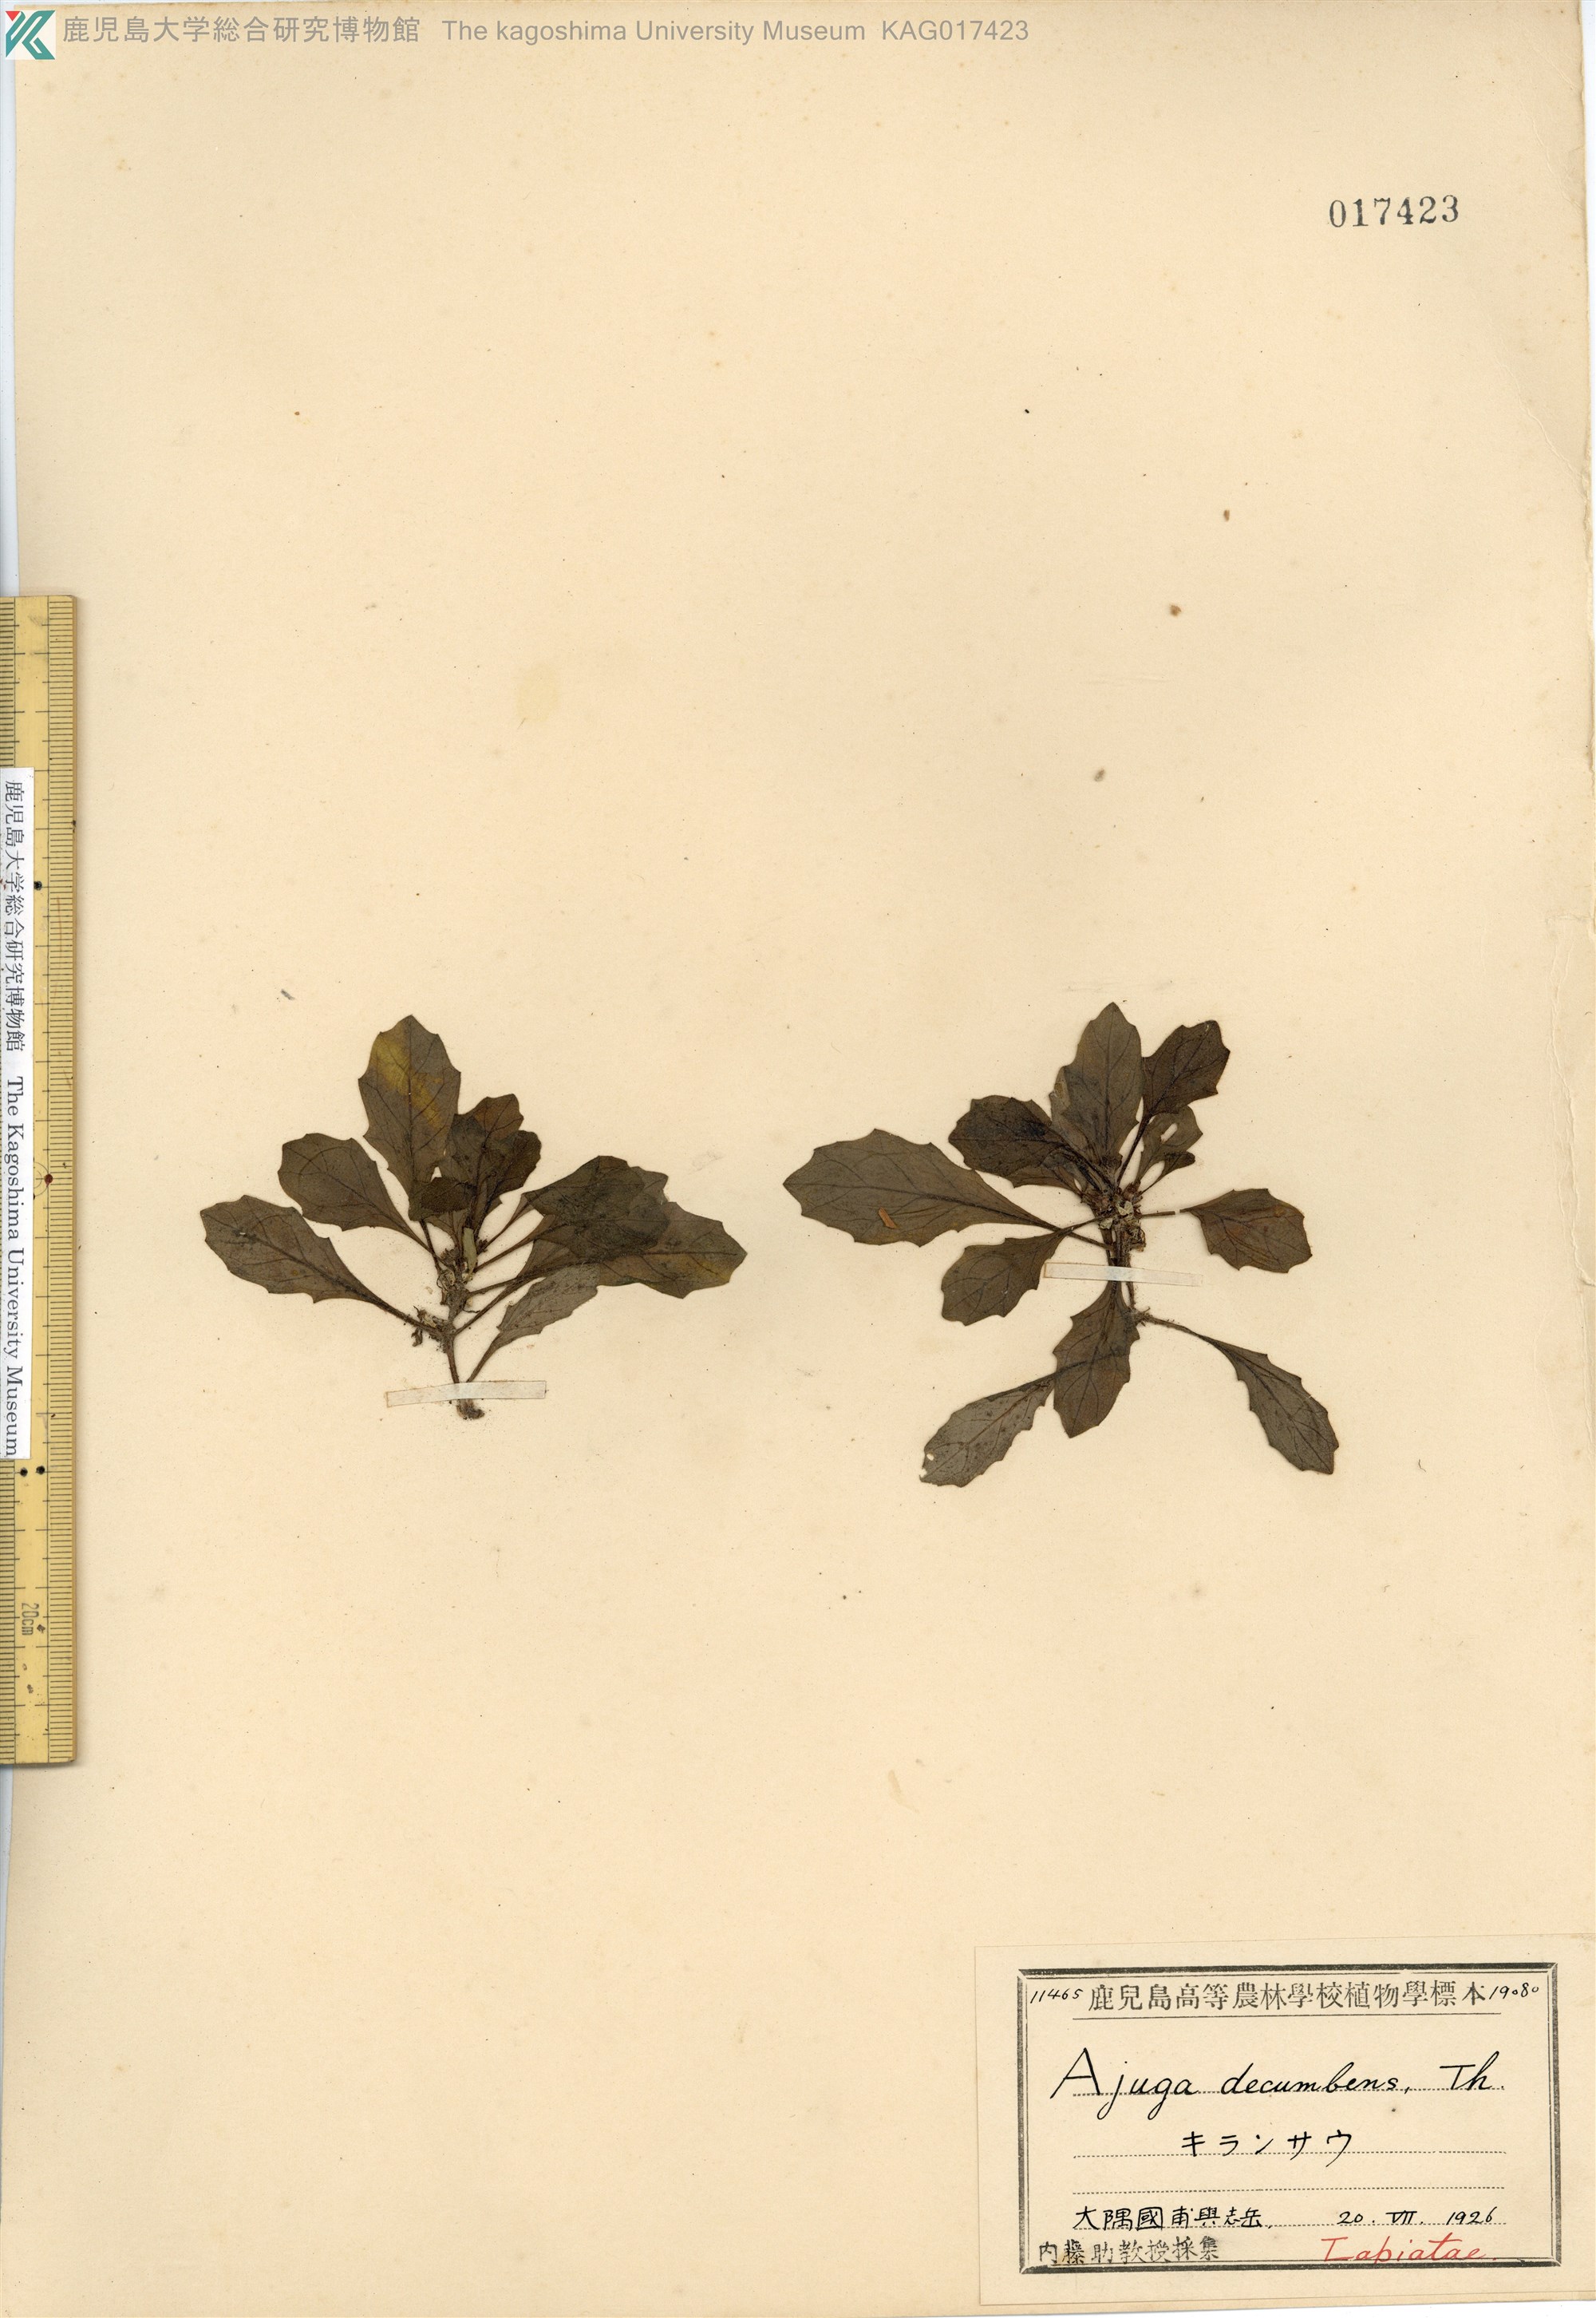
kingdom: Plantae
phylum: Tracheophyta
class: Magnoliopsida
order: Lamiales
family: Lamiaceae
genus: Ajuga
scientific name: Ajuga decumbens
